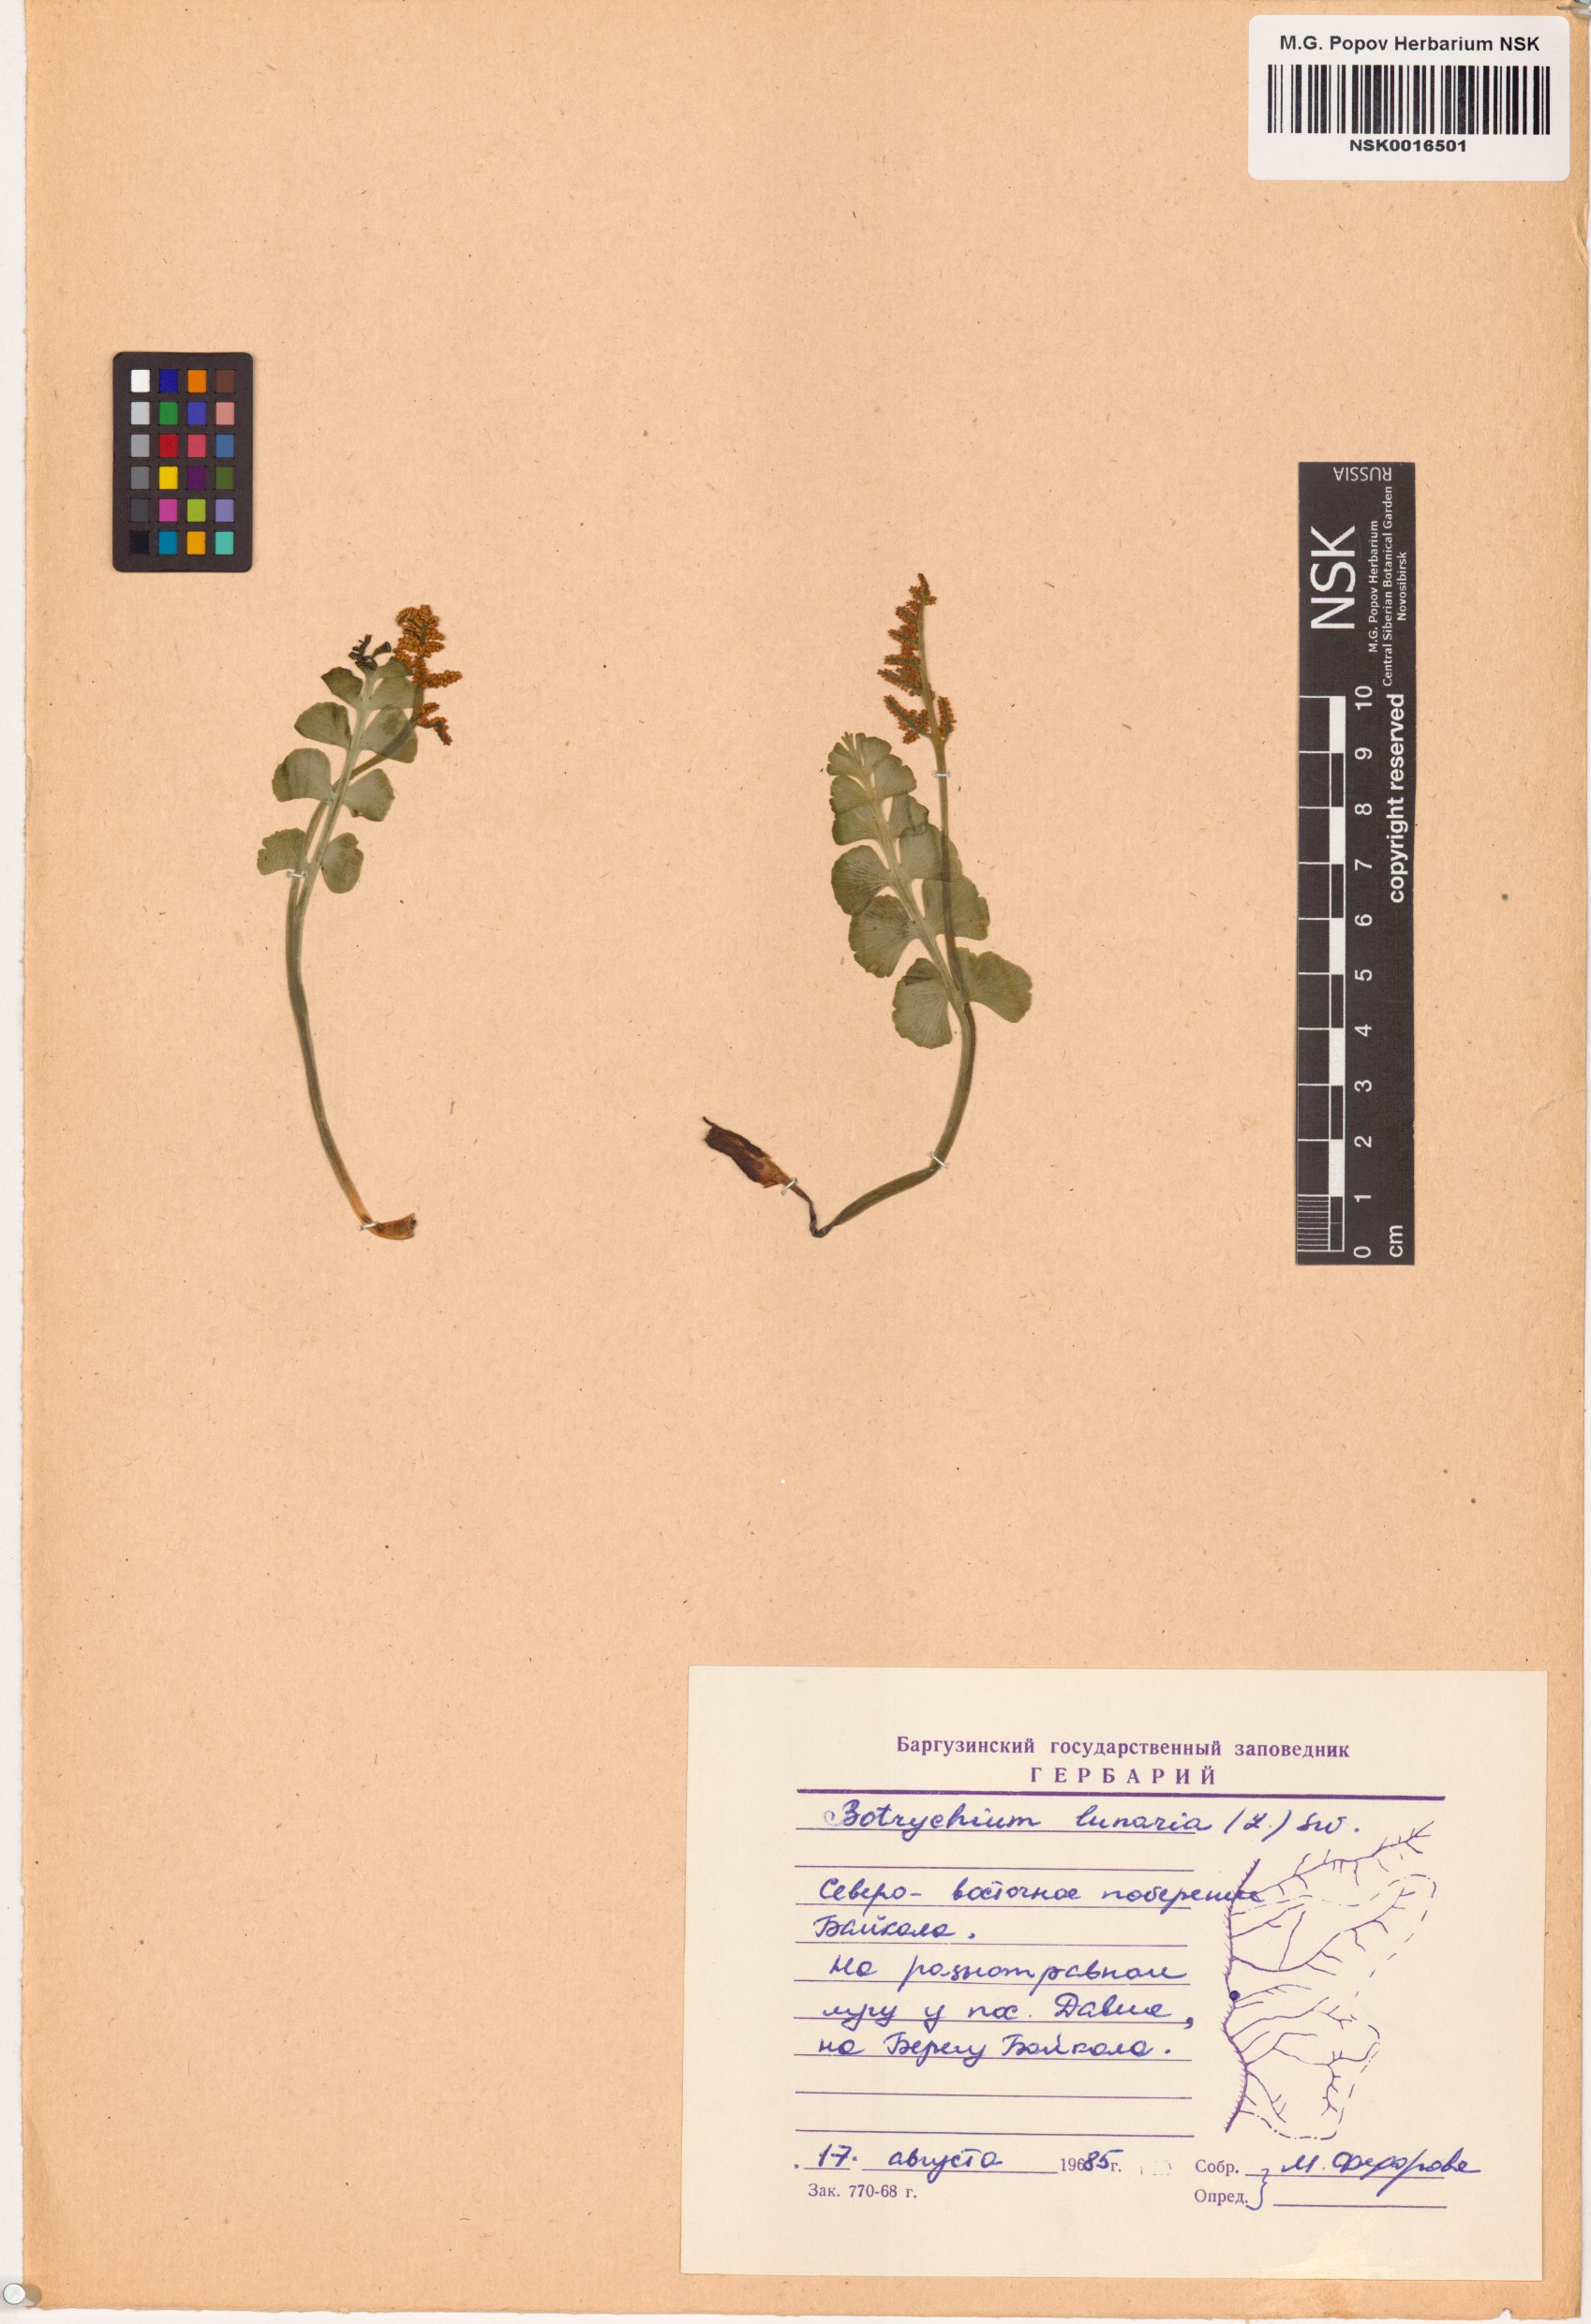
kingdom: Plantae
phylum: Tracheophyta
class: Polypodiopsida
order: Ophioglossales
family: Ophioglossaceae
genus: Botrychium
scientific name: Botrychium lunaria
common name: Moonwort
